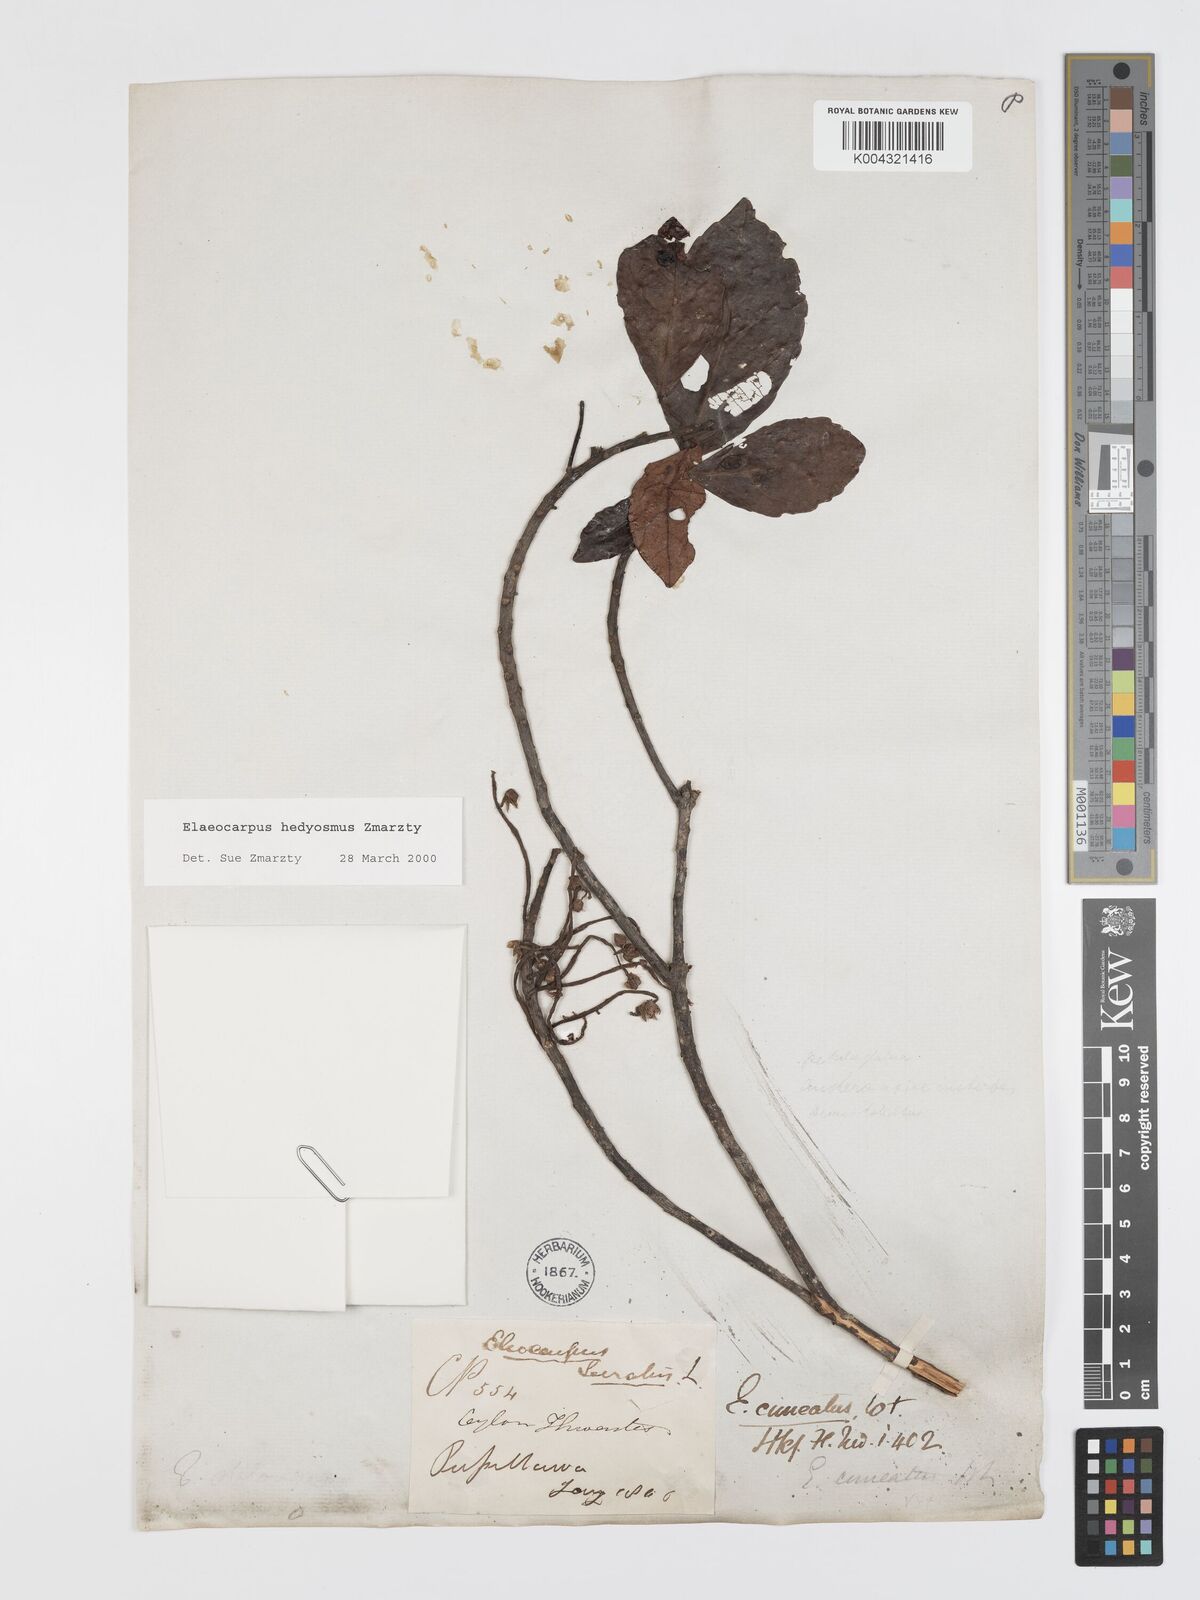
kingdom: Plantae
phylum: Tracheophyta
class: Magnoliopsida
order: Oxalidales
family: Elaeocarpaceae
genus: Elaeocarpus
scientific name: Elaeocarpus hedyosmus
